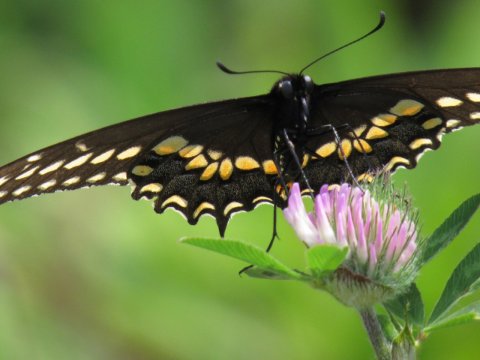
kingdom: Animalia
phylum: Arthropoda
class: Insecta
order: Lepidoptera
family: Papilionidae
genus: Papilio
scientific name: Papilio polyxenes
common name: Black Swallowtail
